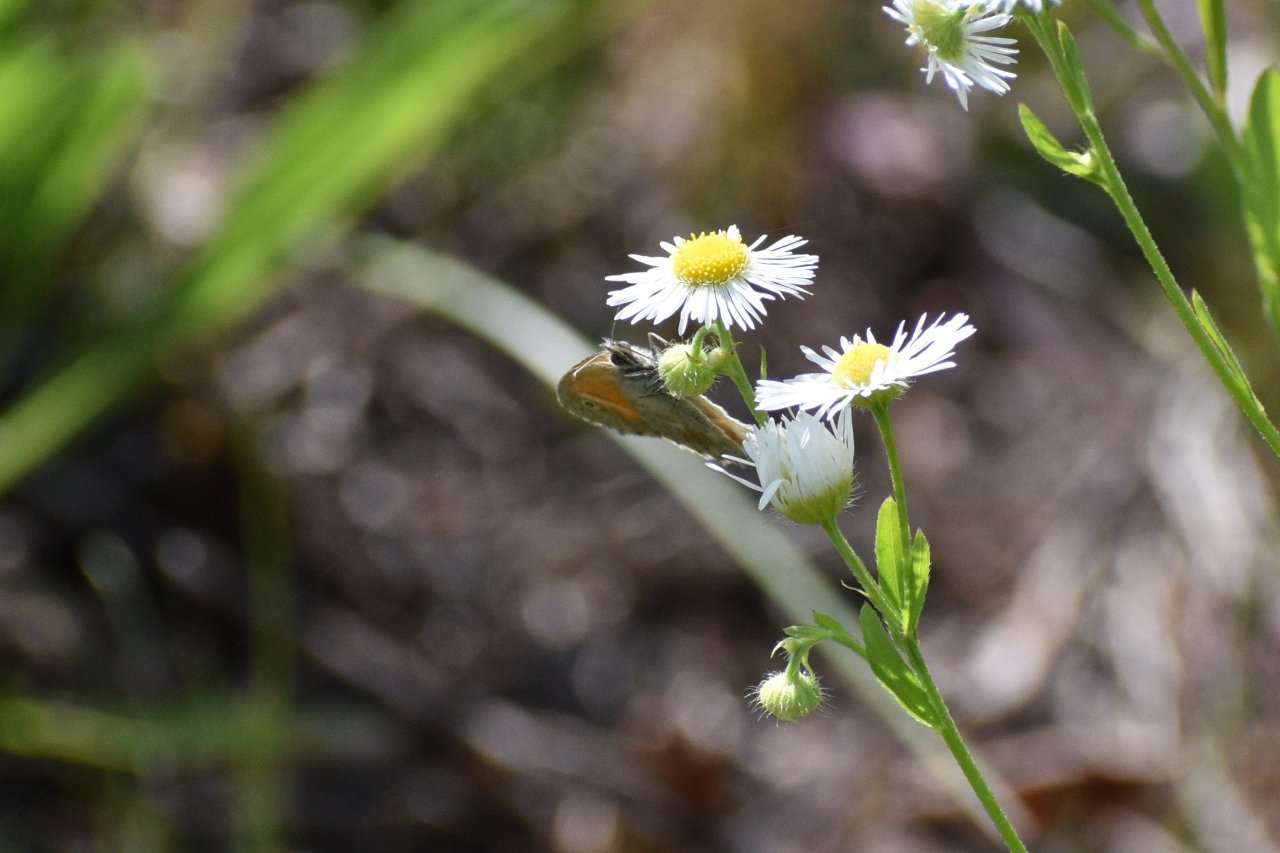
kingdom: Animalia
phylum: Arthropoda
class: Insecta
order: Lepidoptera
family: Nymphalidae
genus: Coenonympha
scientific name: Coenonympha tullia
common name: Large Heath
